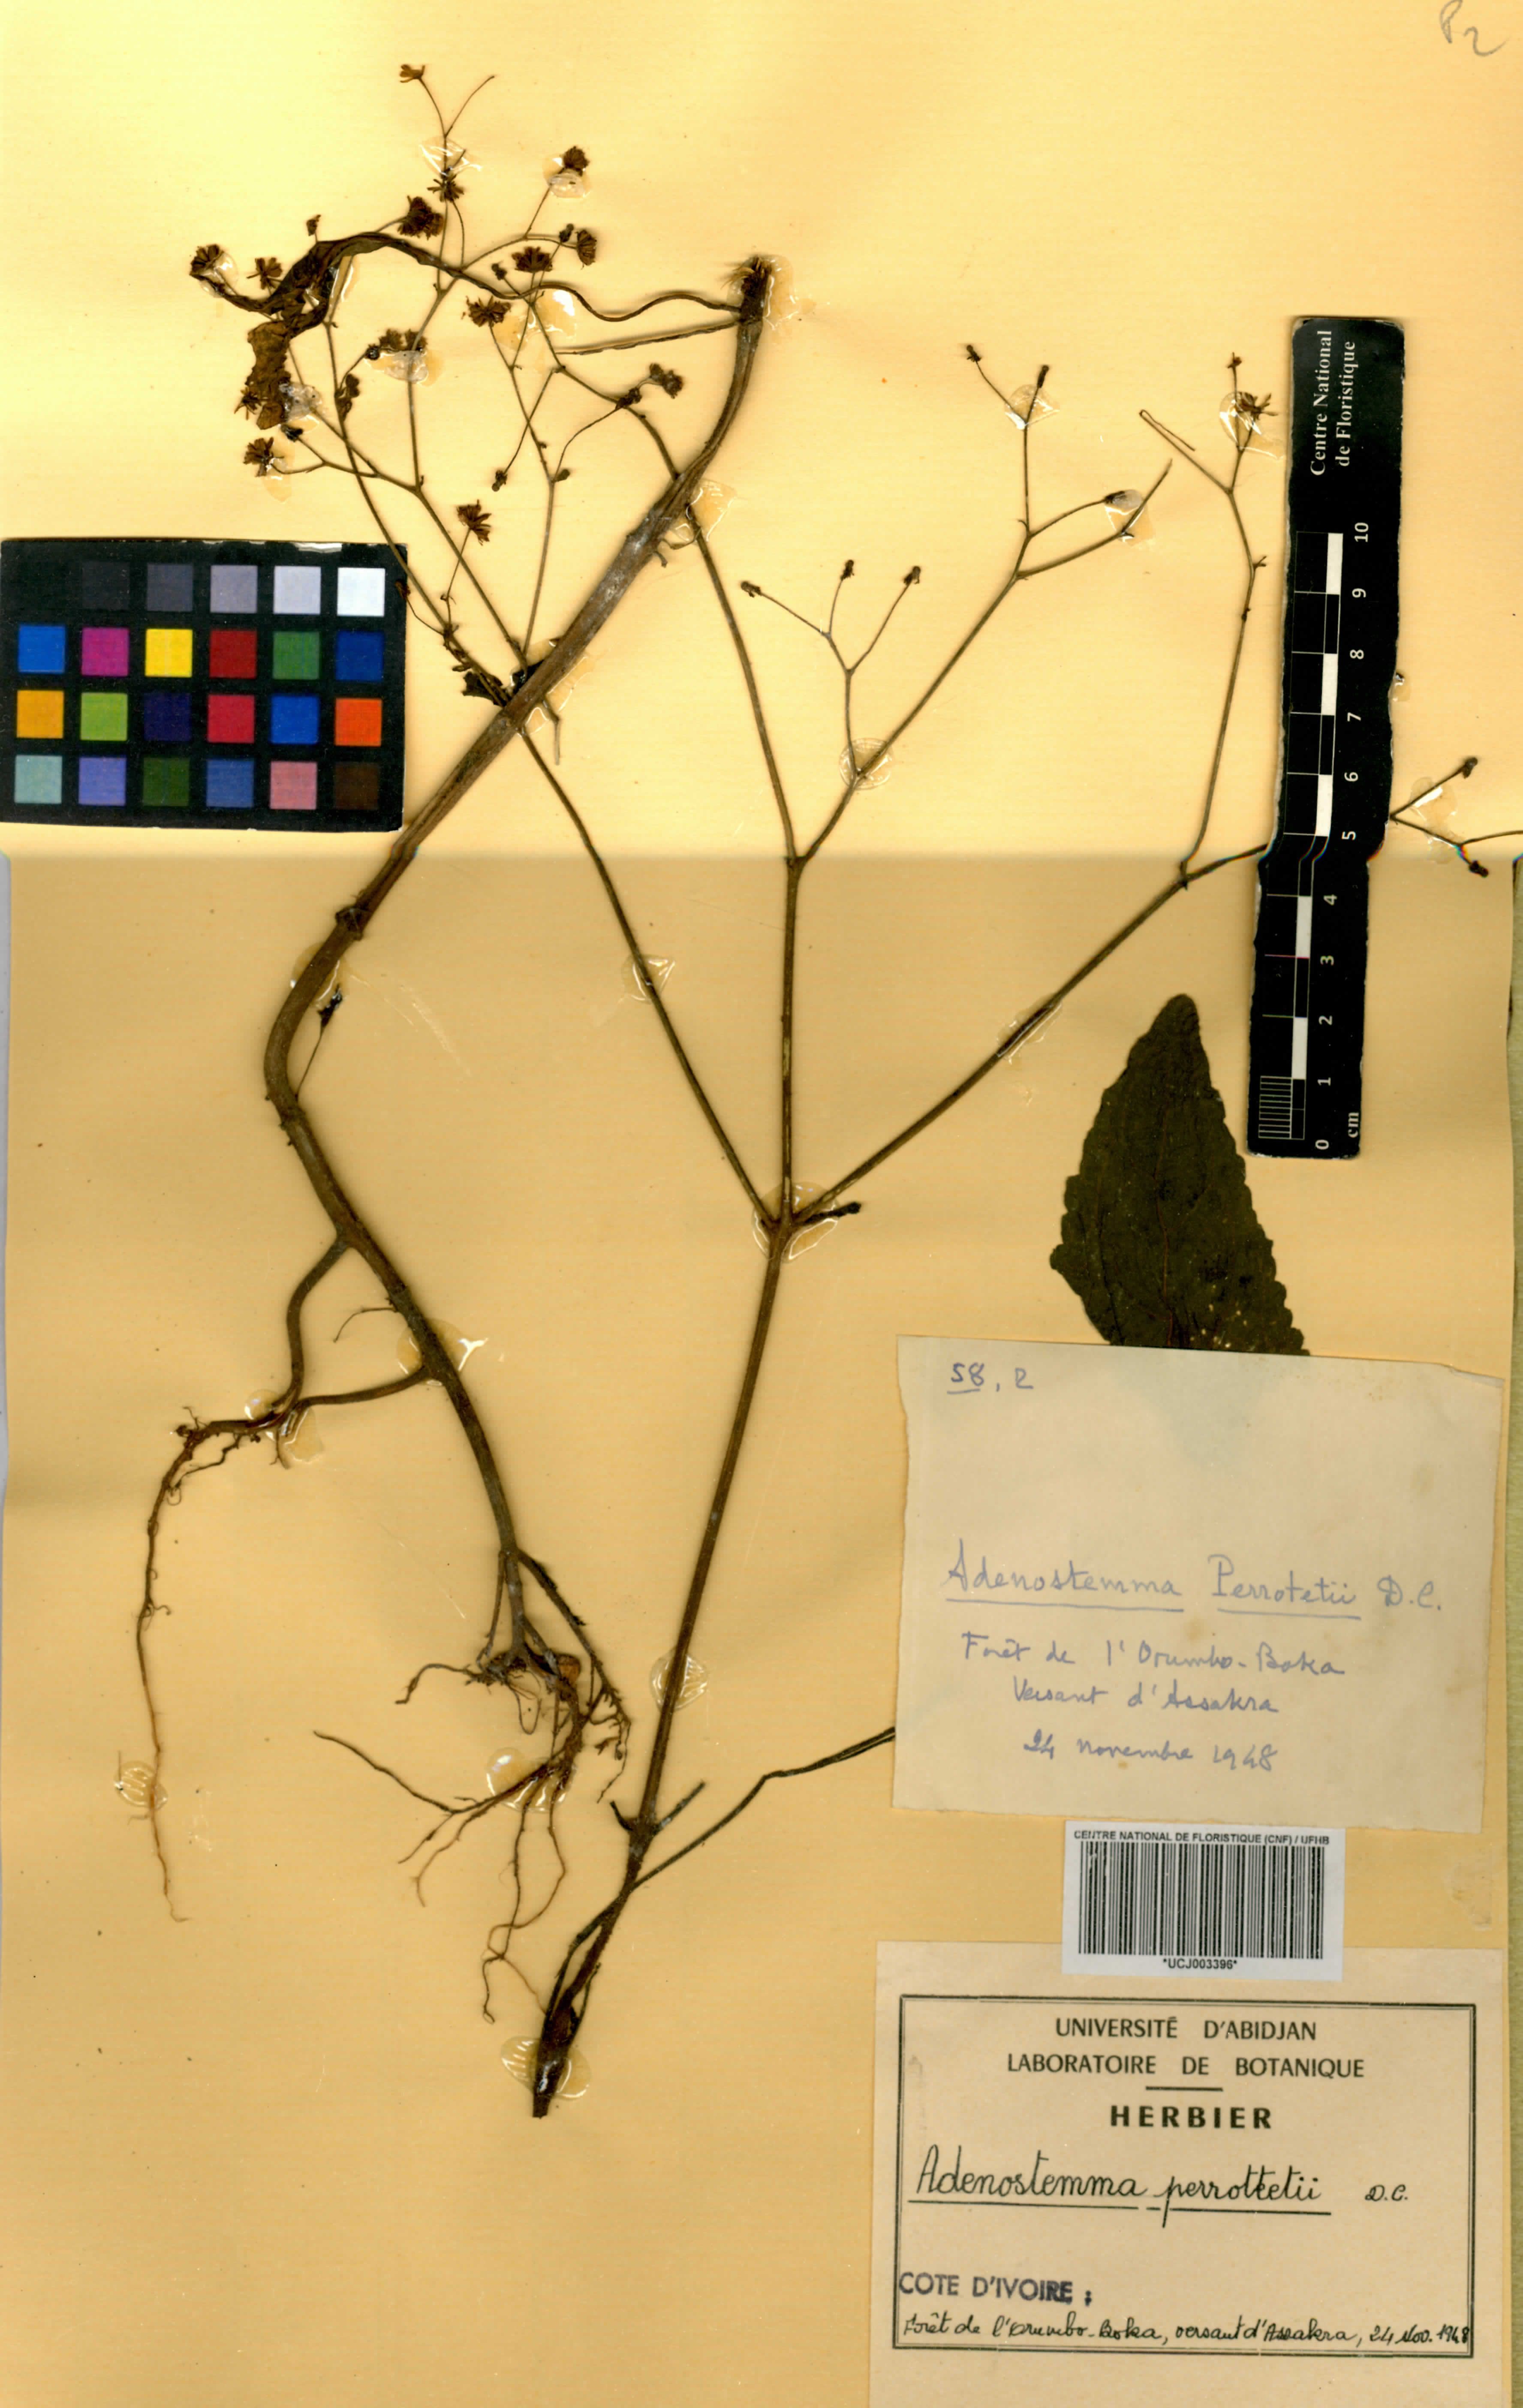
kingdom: Plantae
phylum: Tracheophyta
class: Magnoliopsida
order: Asterales
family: Asteraceae
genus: Adenostemma
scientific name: Adenostemma viscosum
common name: Dungweed
